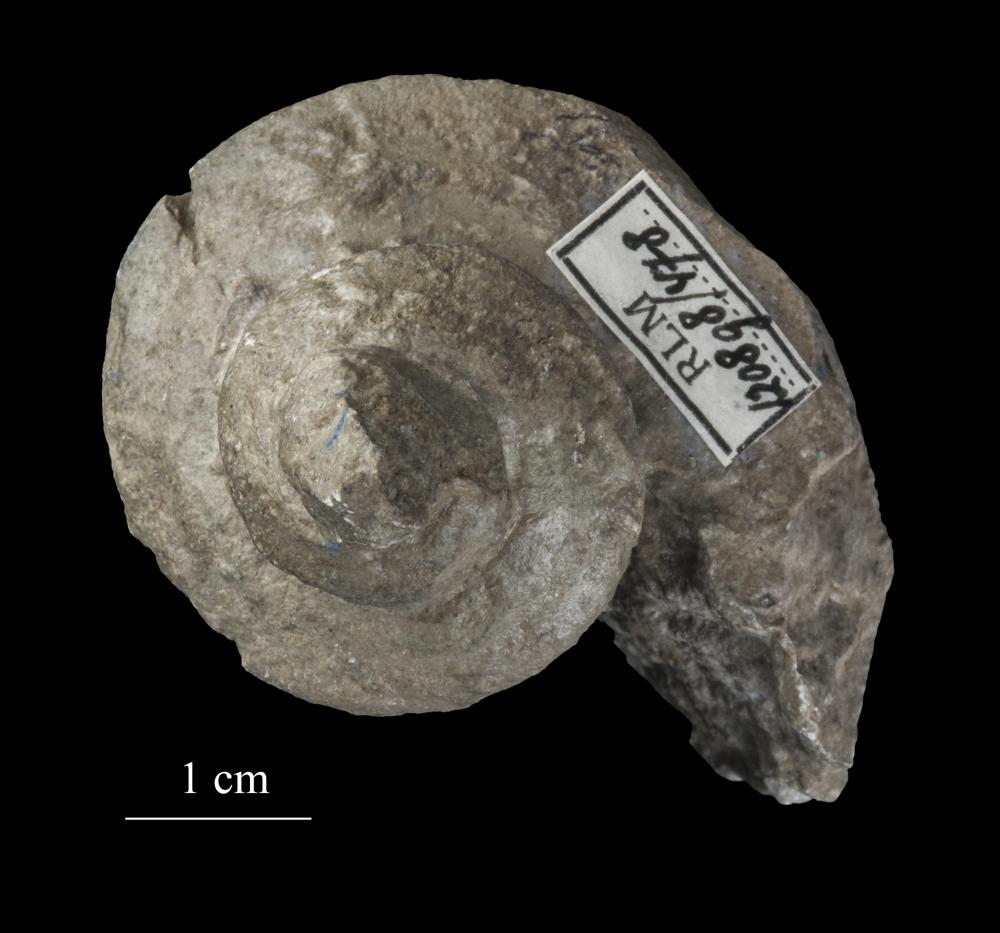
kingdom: Animalia
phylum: Mollusca
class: Gastropoda
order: Pleurotomariida
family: Pleurotomariidae
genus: Pleurotomaria
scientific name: Pleurotomaria
